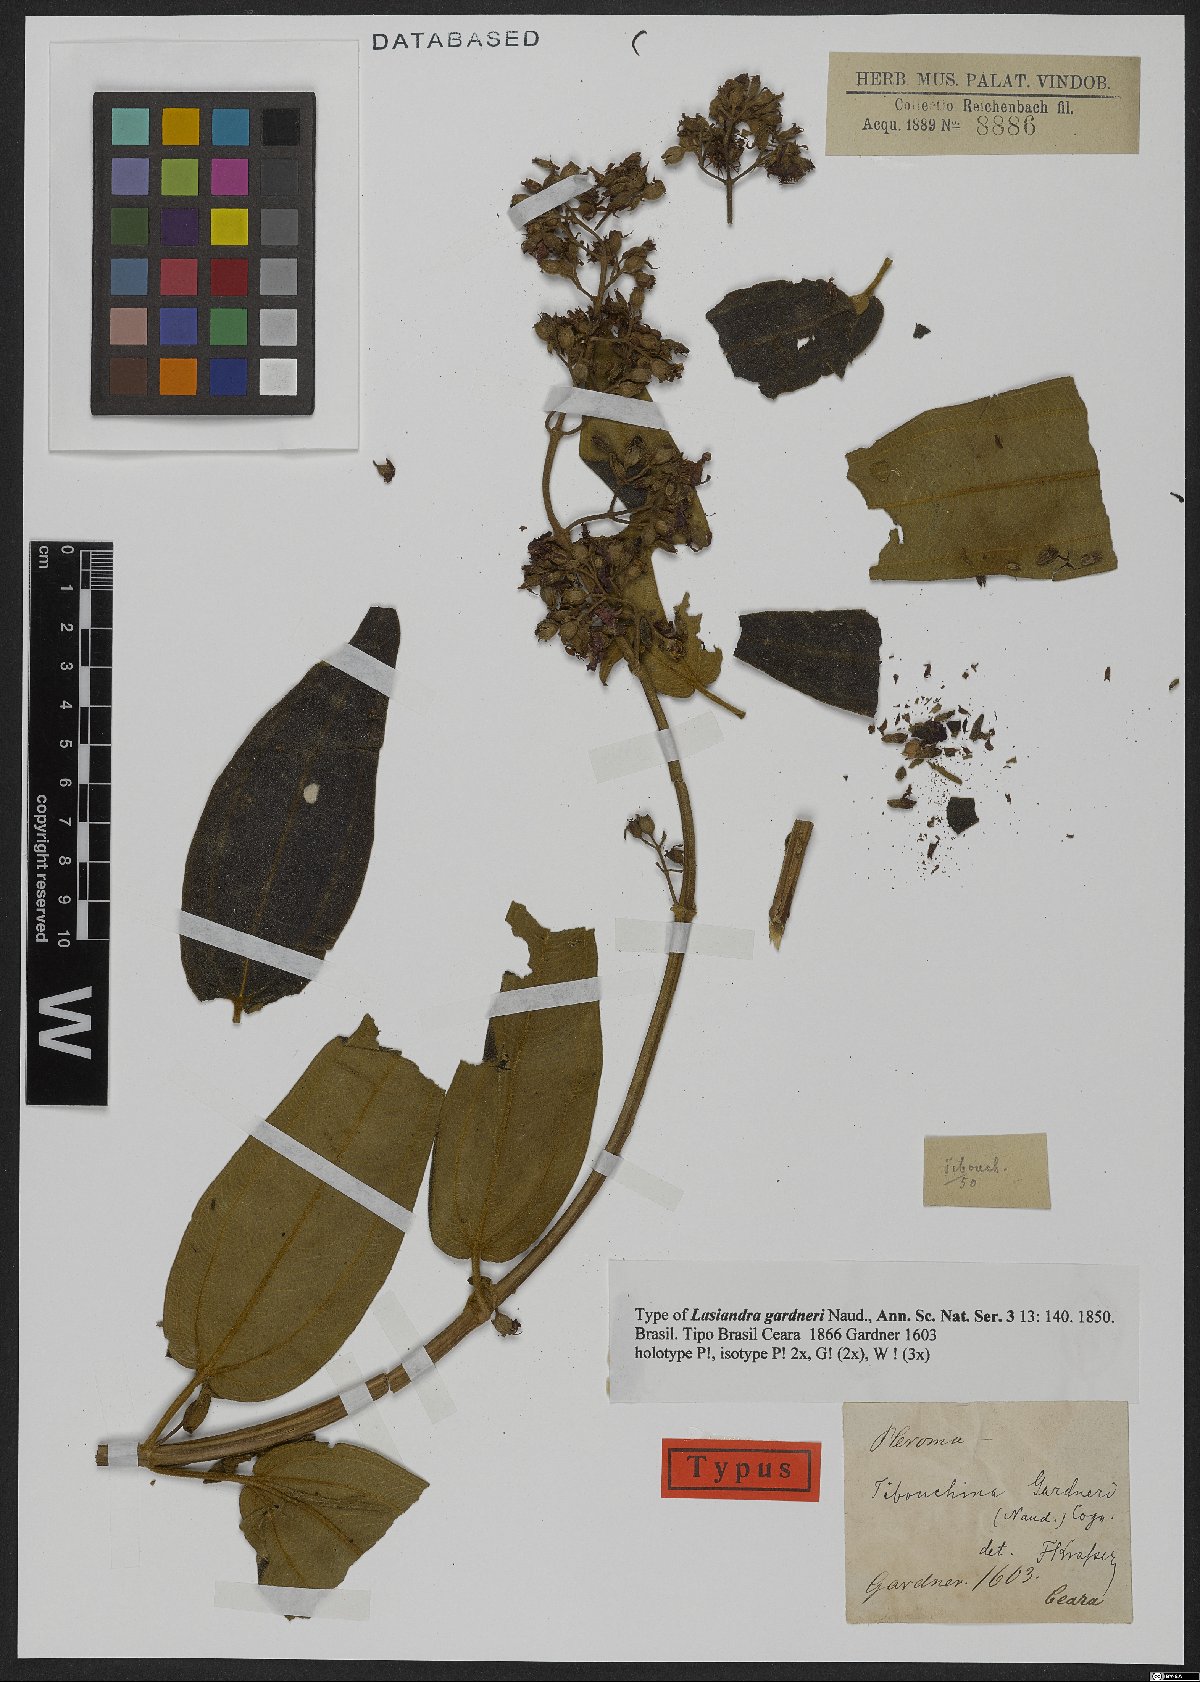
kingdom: Plantae
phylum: Tracheophyta
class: Magnoliopsida
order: Myrtales
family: Melastomataceae
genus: Pleroma
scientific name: Pleroma gardneri
